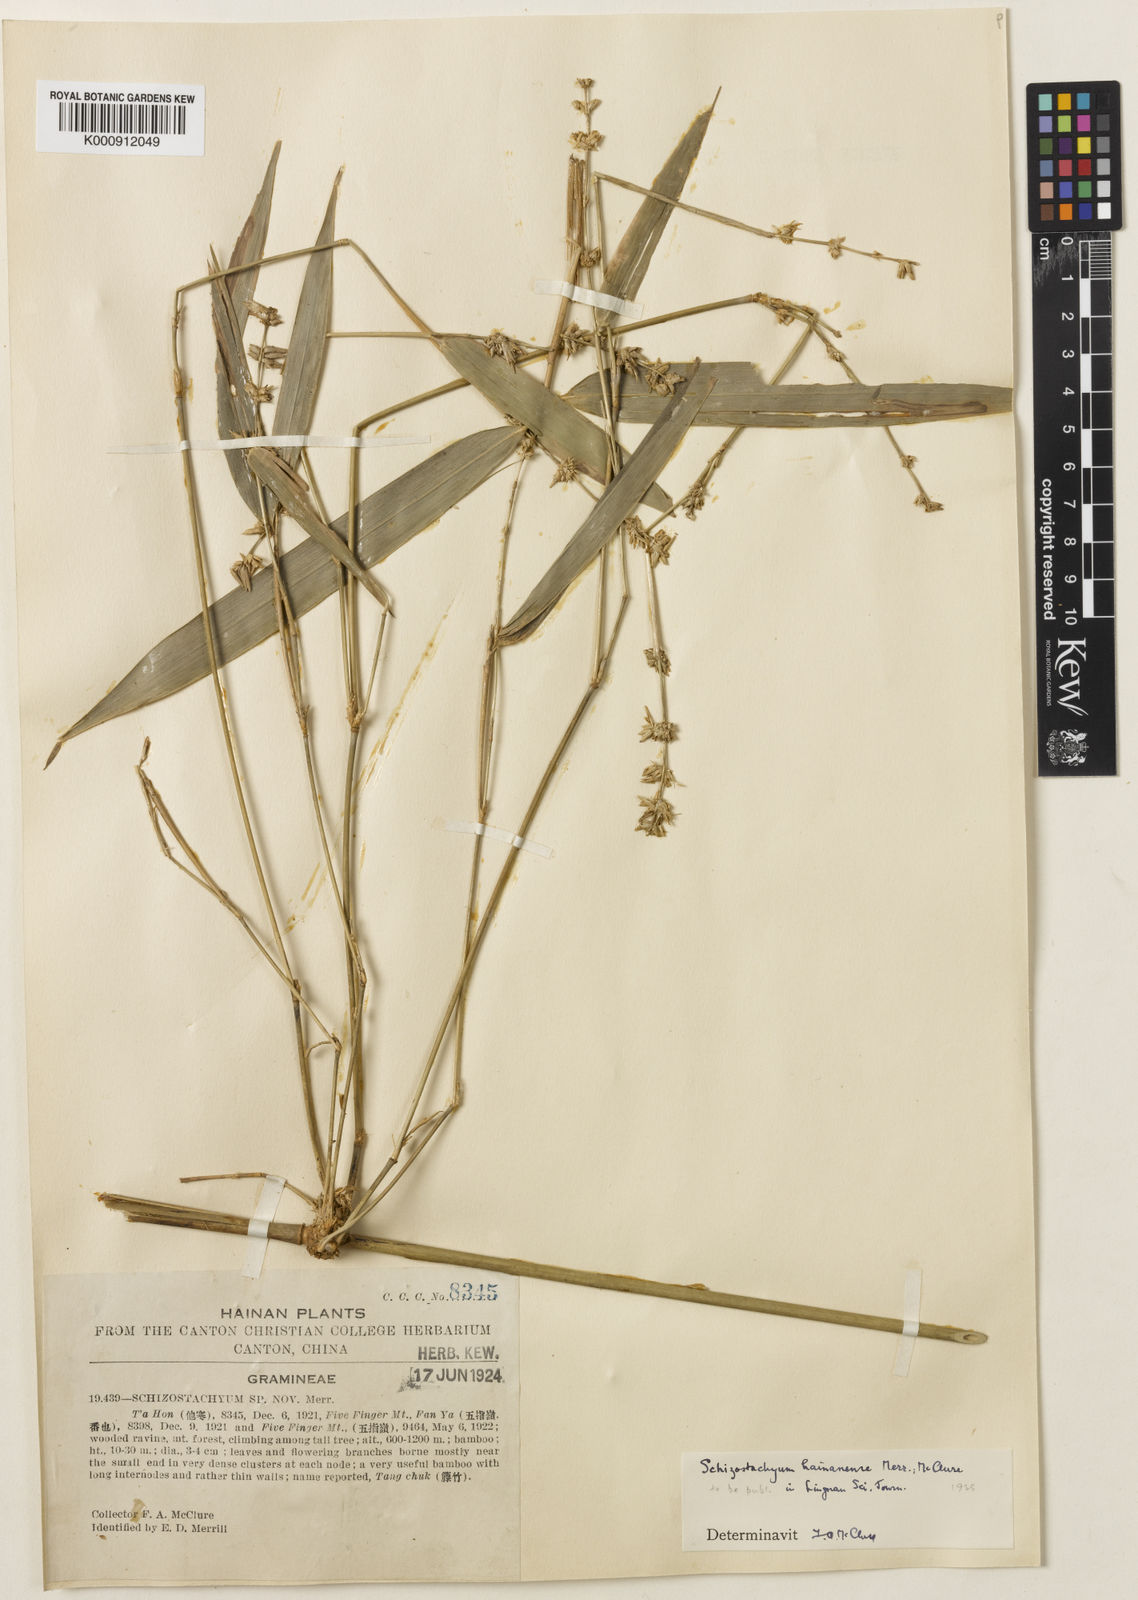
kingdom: Plantae
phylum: Tracheophyta
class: Liliopsida
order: Poales
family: Poaceae
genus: Schizostachyum
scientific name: Schizostachyum hainanense
